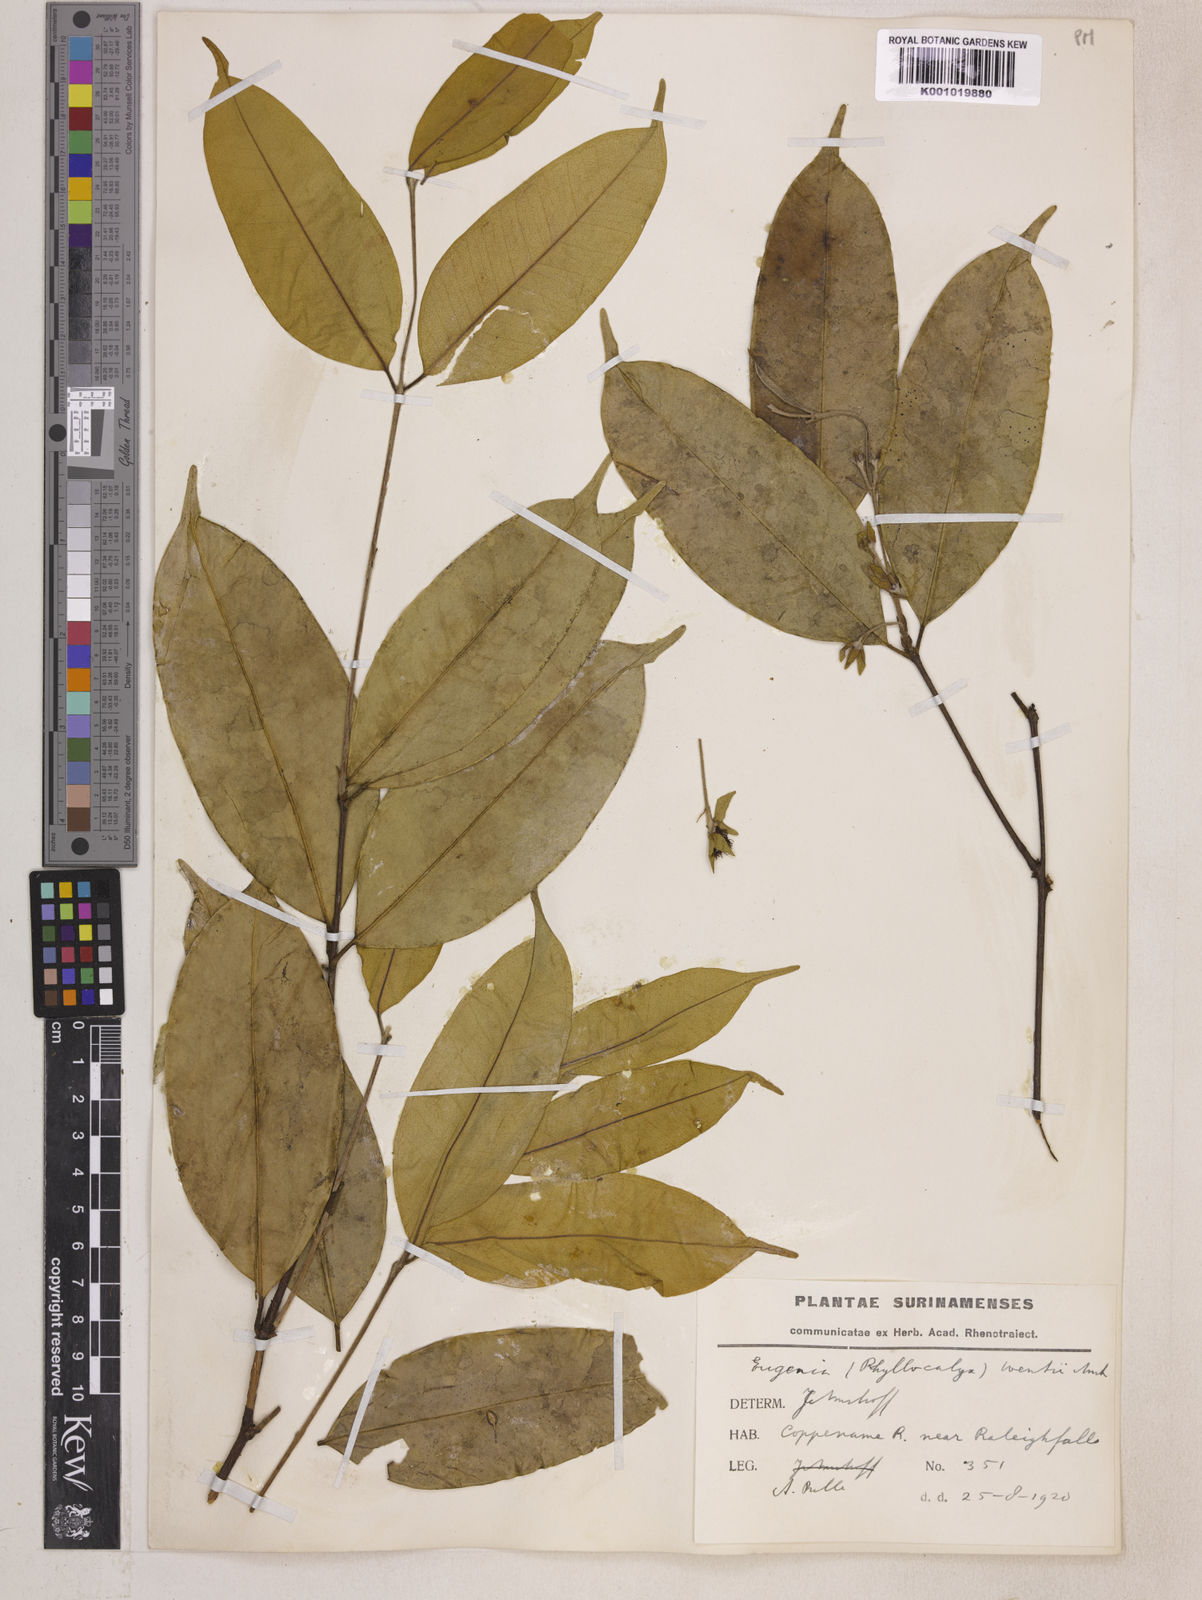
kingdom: Plantae
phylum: Tracheophyta
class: Magnoliopsida
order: Myrtales
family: Myrtaceae
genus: Eugenia
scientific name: Eugenia wentii
